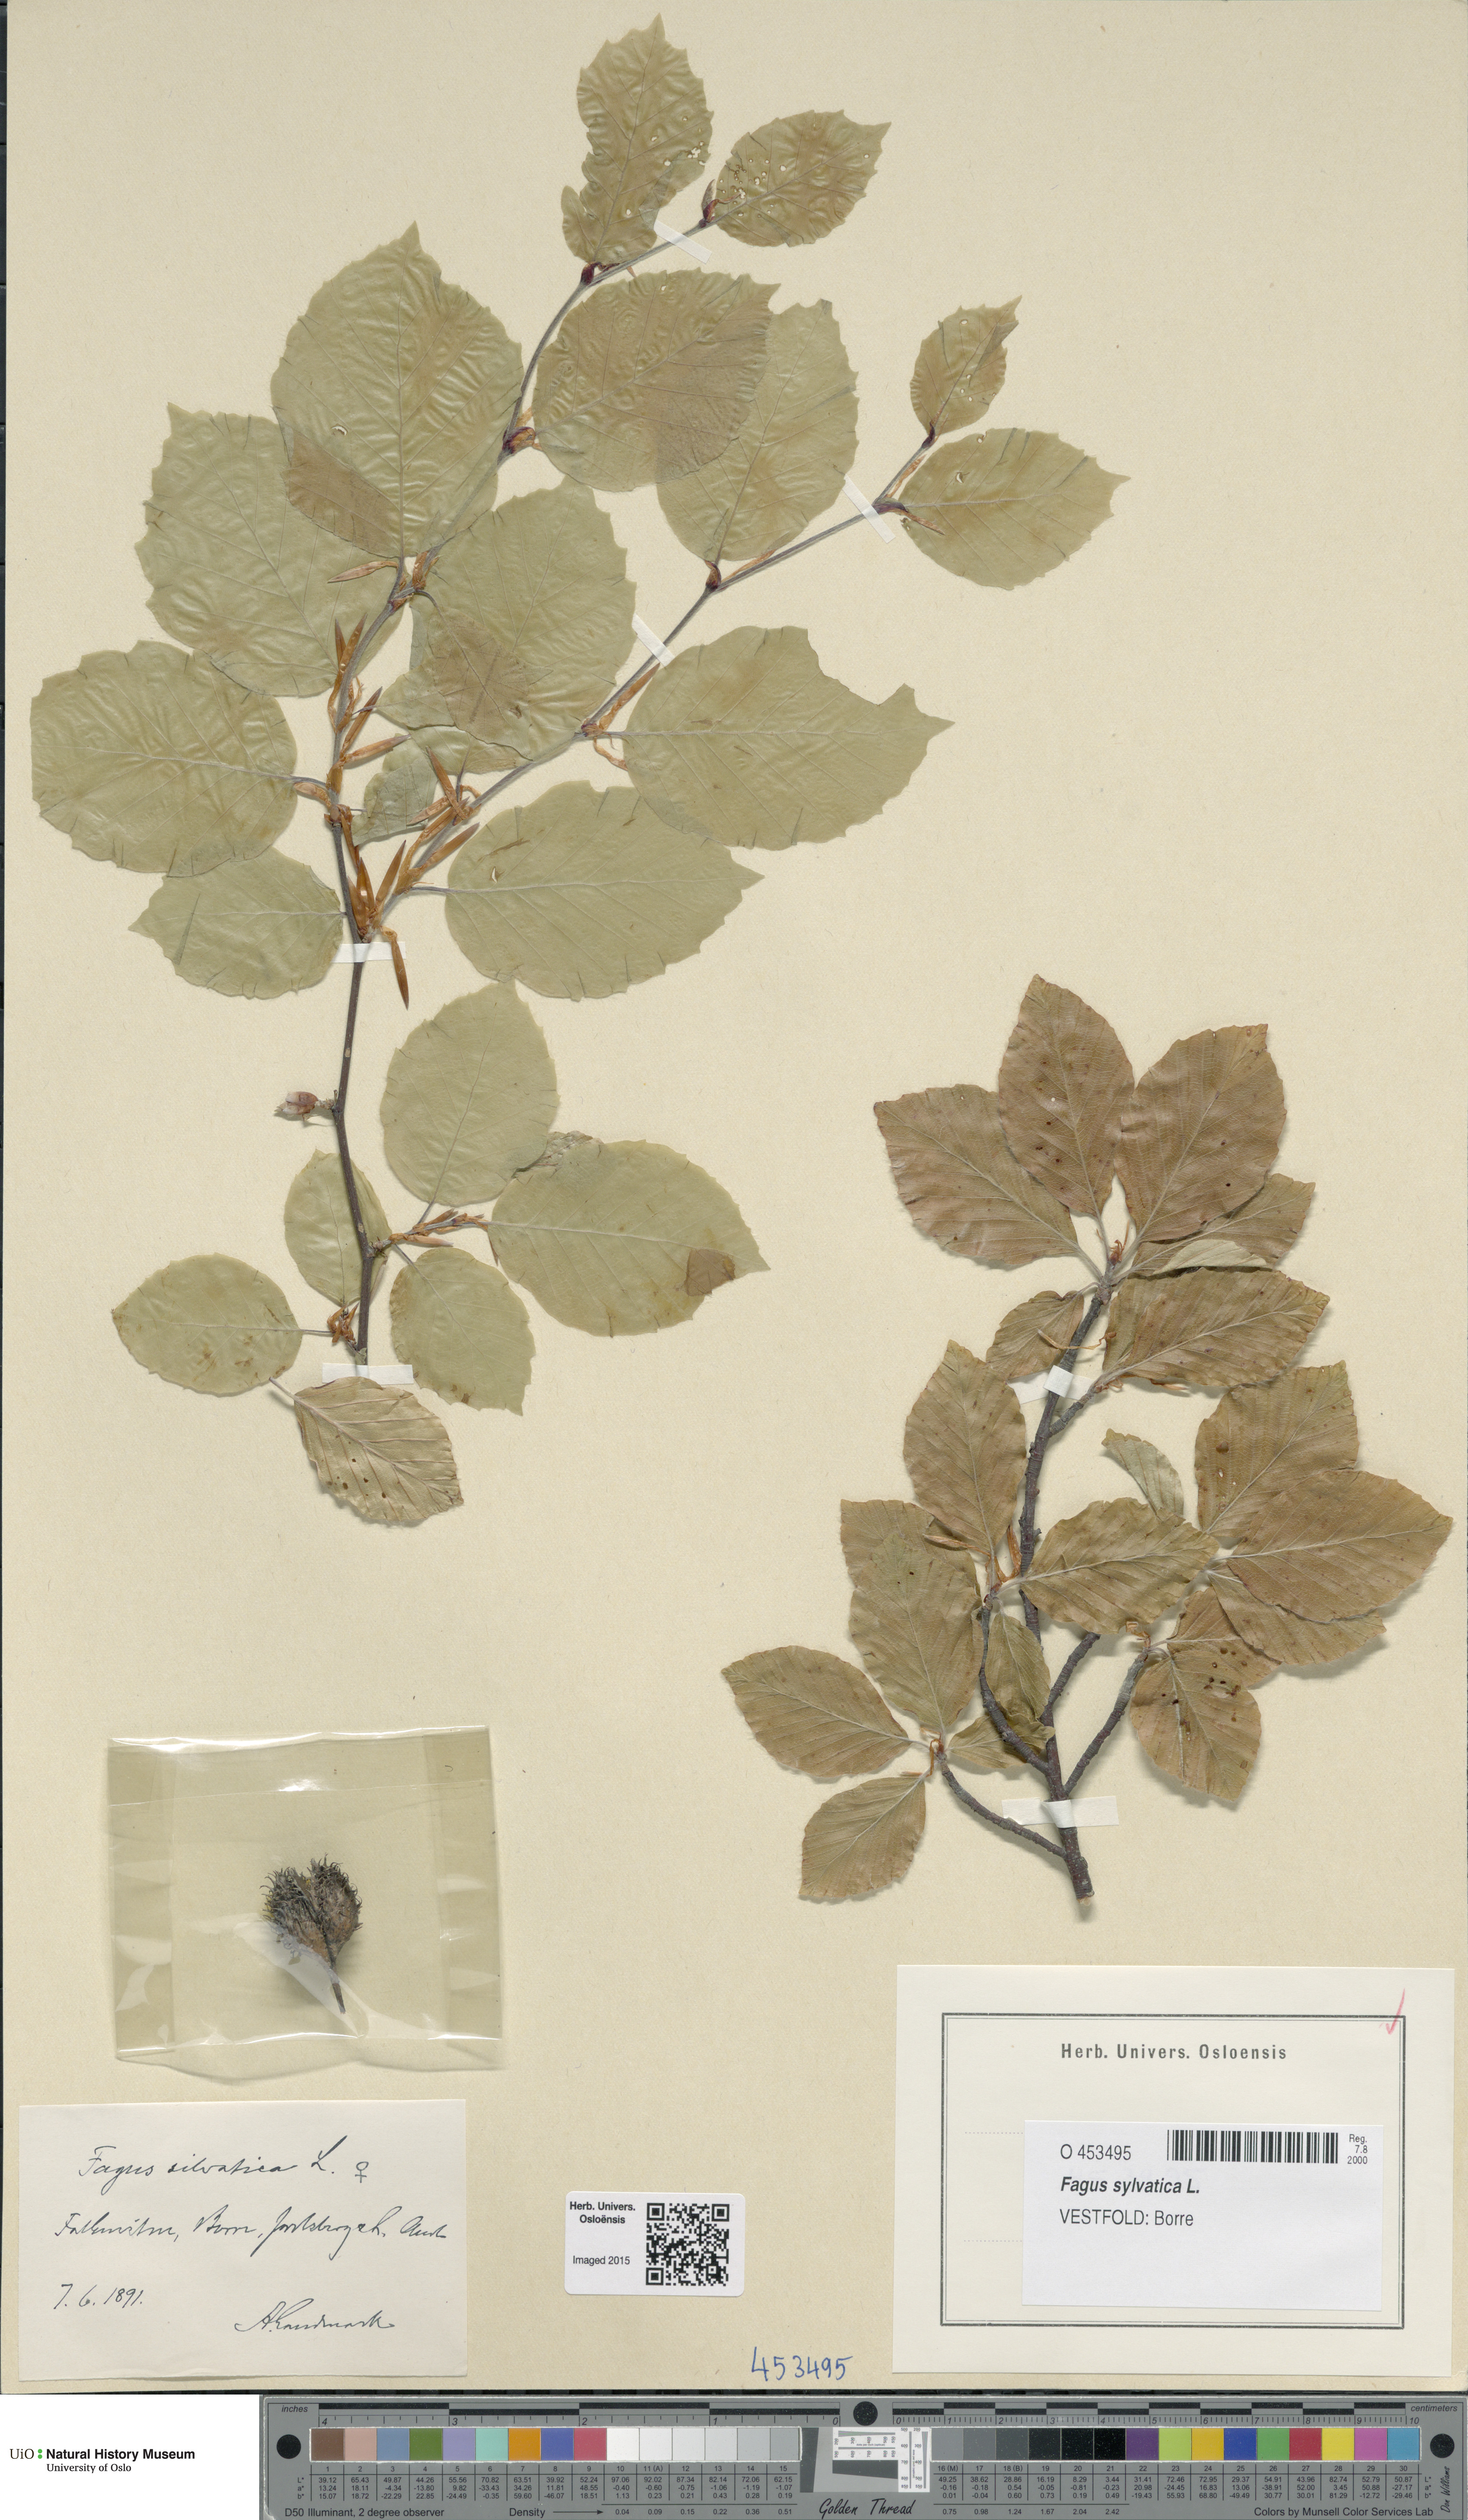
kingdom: Plantae
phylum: Tracheophyta
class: Magnoliopsida
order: Fagales
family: Fagaceae
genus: Fagus
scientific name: Fagus sylvatica
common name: Beech
